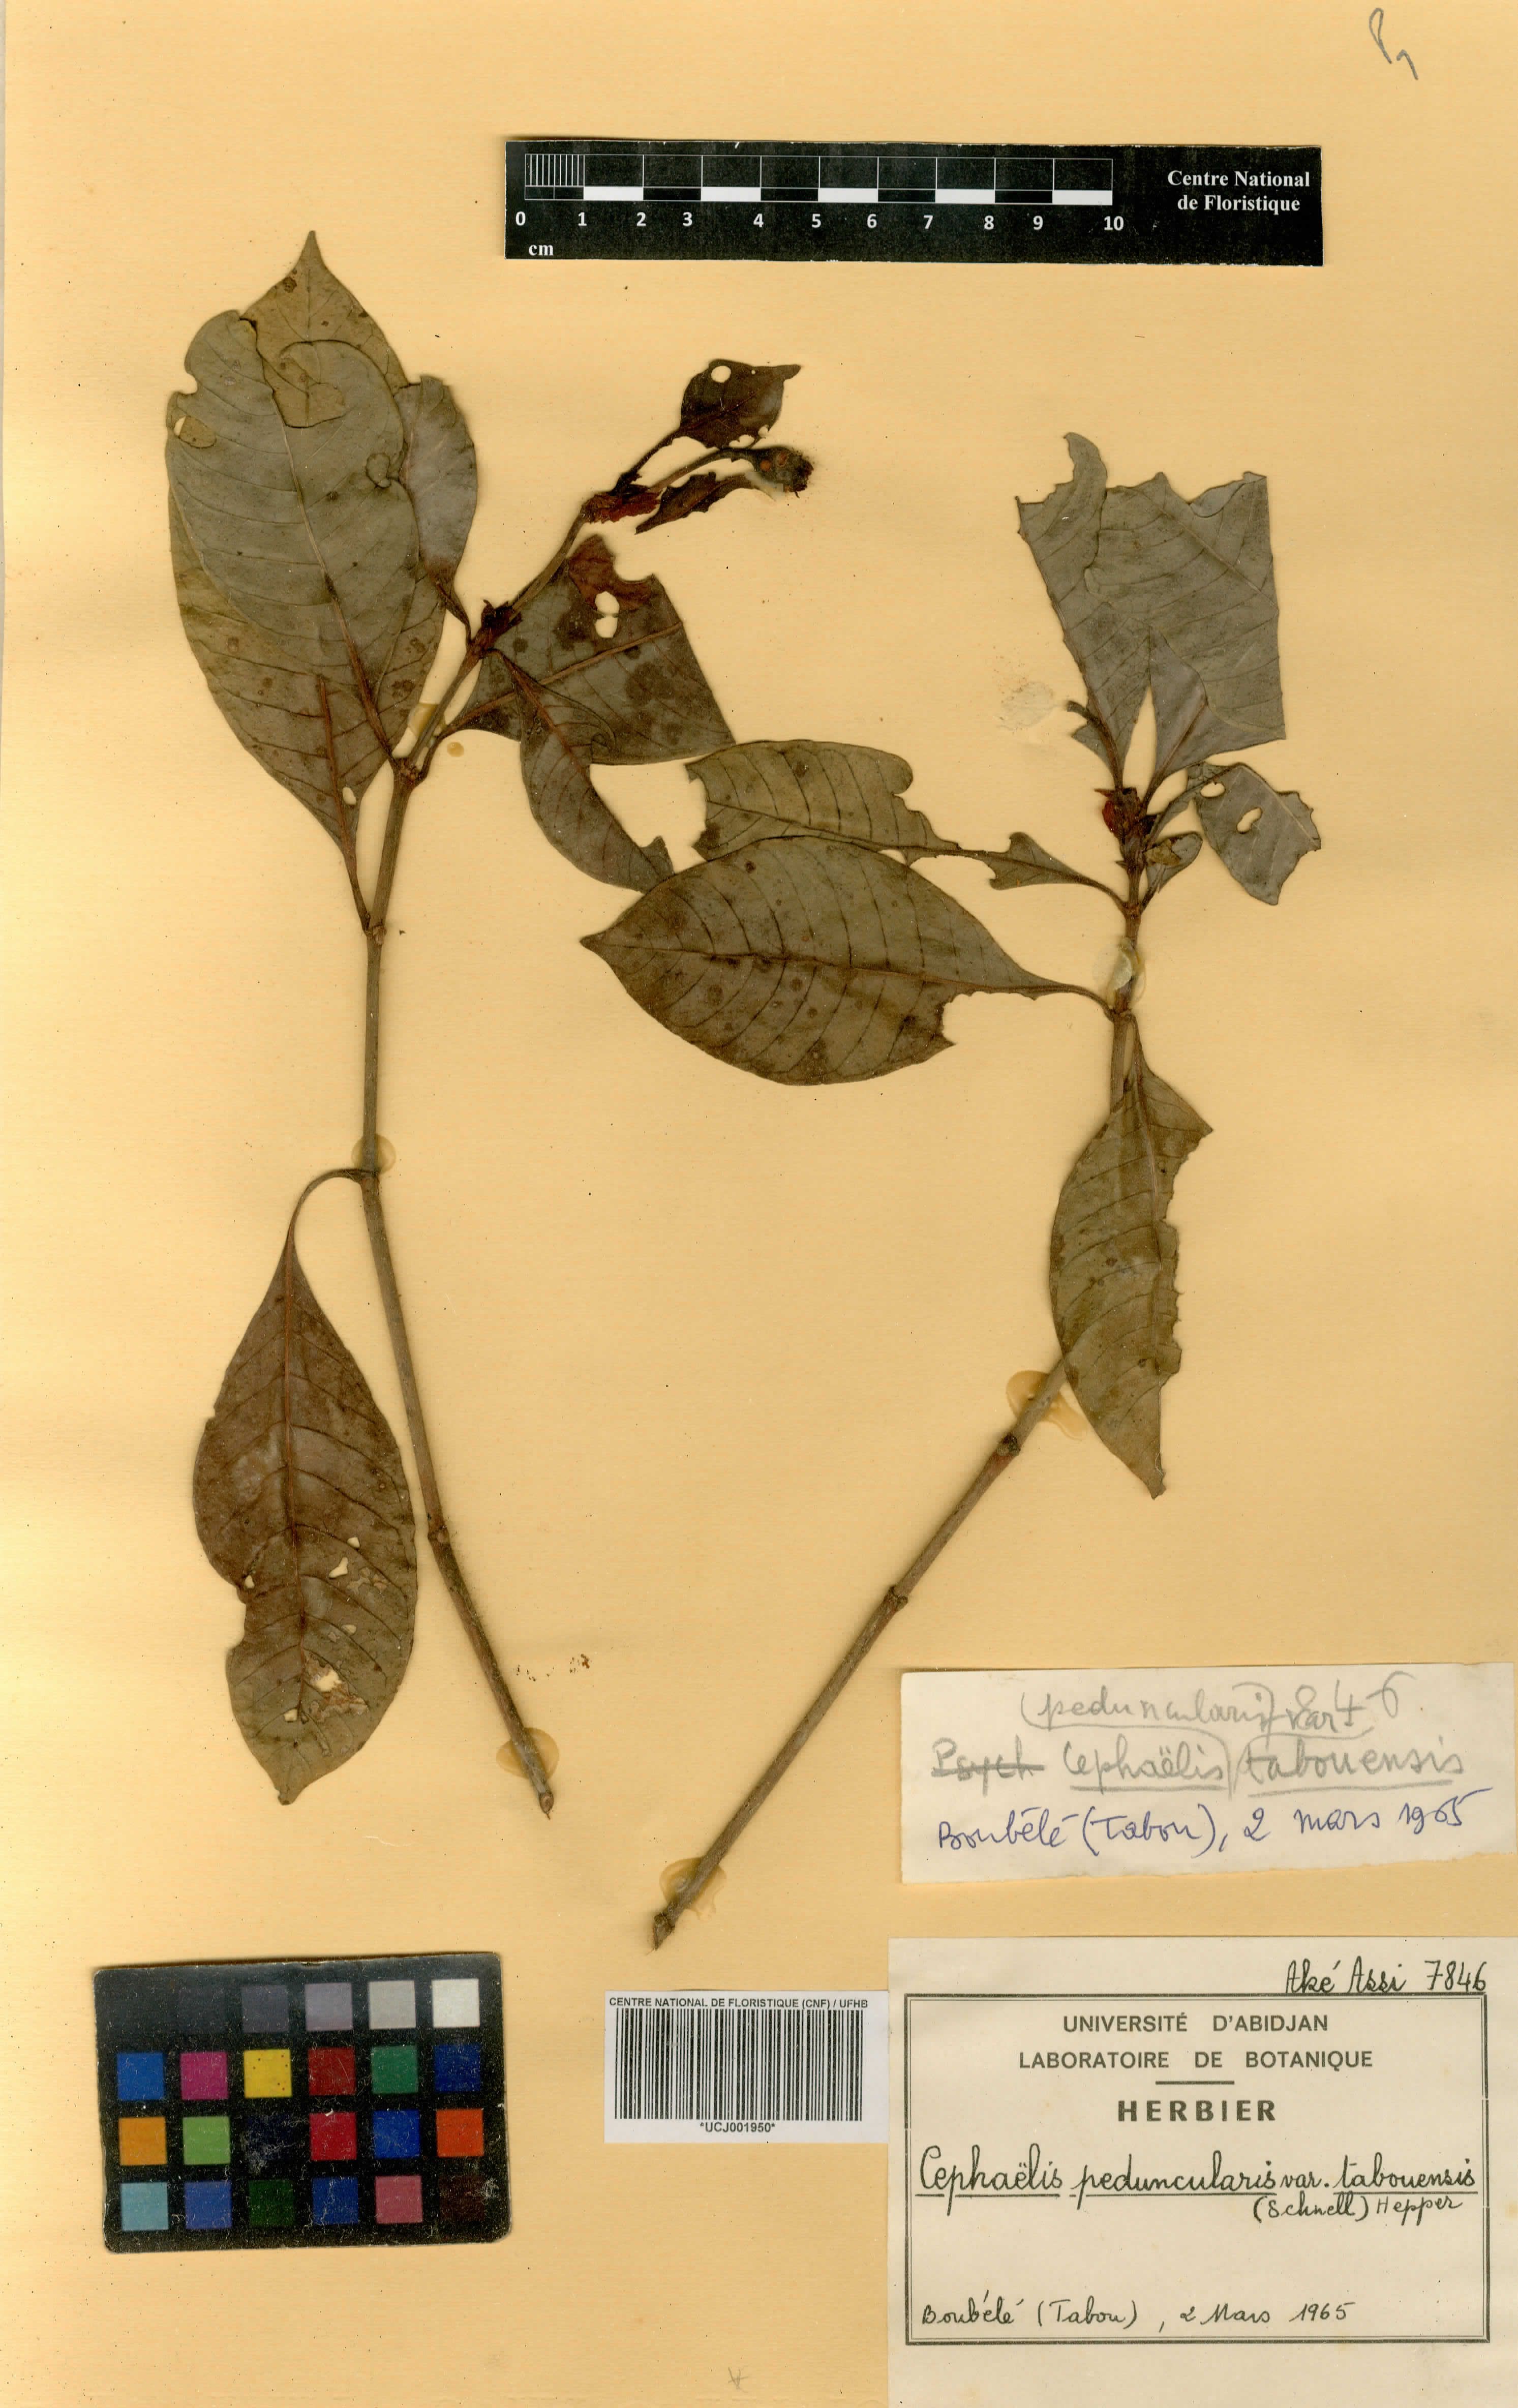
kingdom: Plantae
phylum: Tracheophyta
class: Magnoliopsida
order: Gentianales
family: Rubiaceae
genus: Psychotria
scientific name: Psychotria peduncularis
